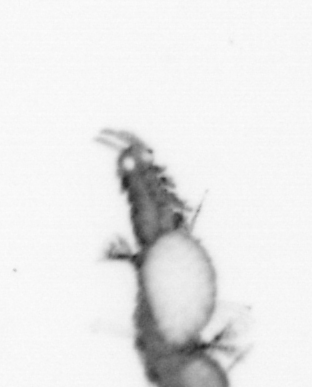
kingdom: Animalia
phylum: Annelida
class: Polychaeta
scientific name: Polychaeta
